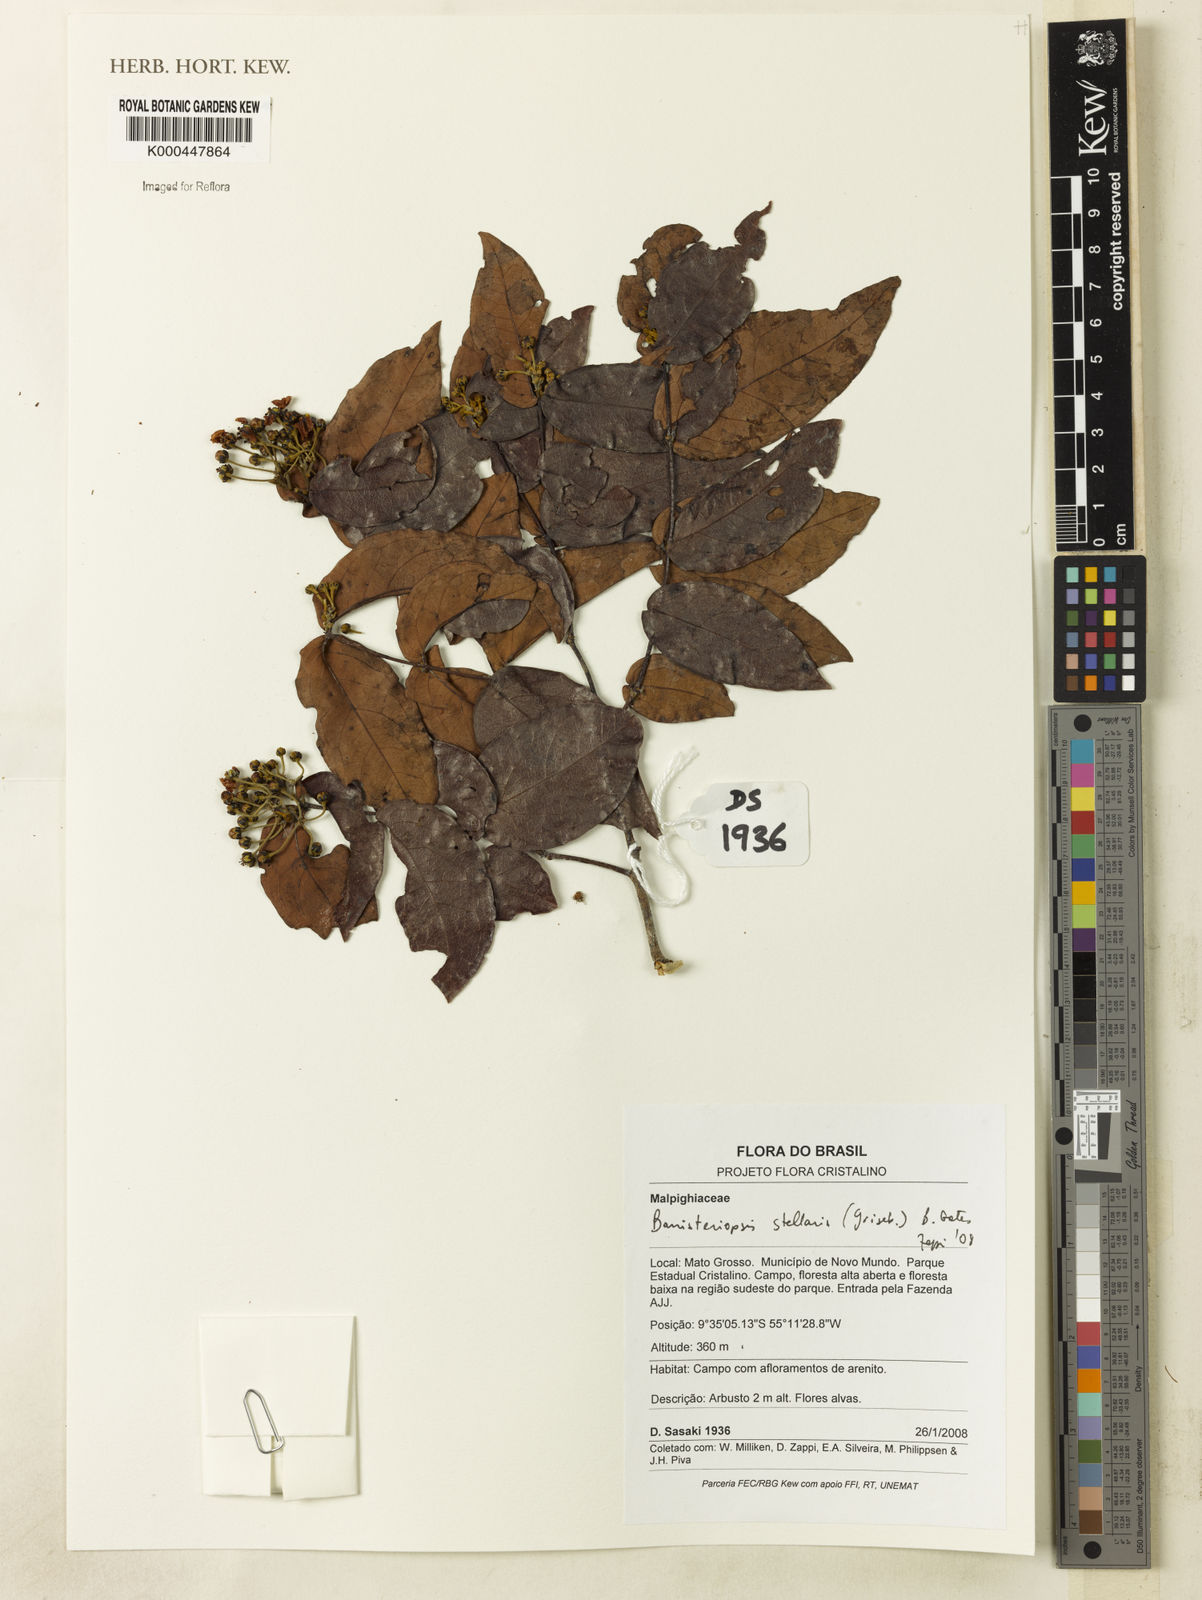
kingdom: Plantae
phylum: Tracheophyta
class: Magnoliopsida
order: Malpighiales
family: Malpighiaceae
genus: Banisteriopsis
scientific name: Banisteriopsis stellaris
